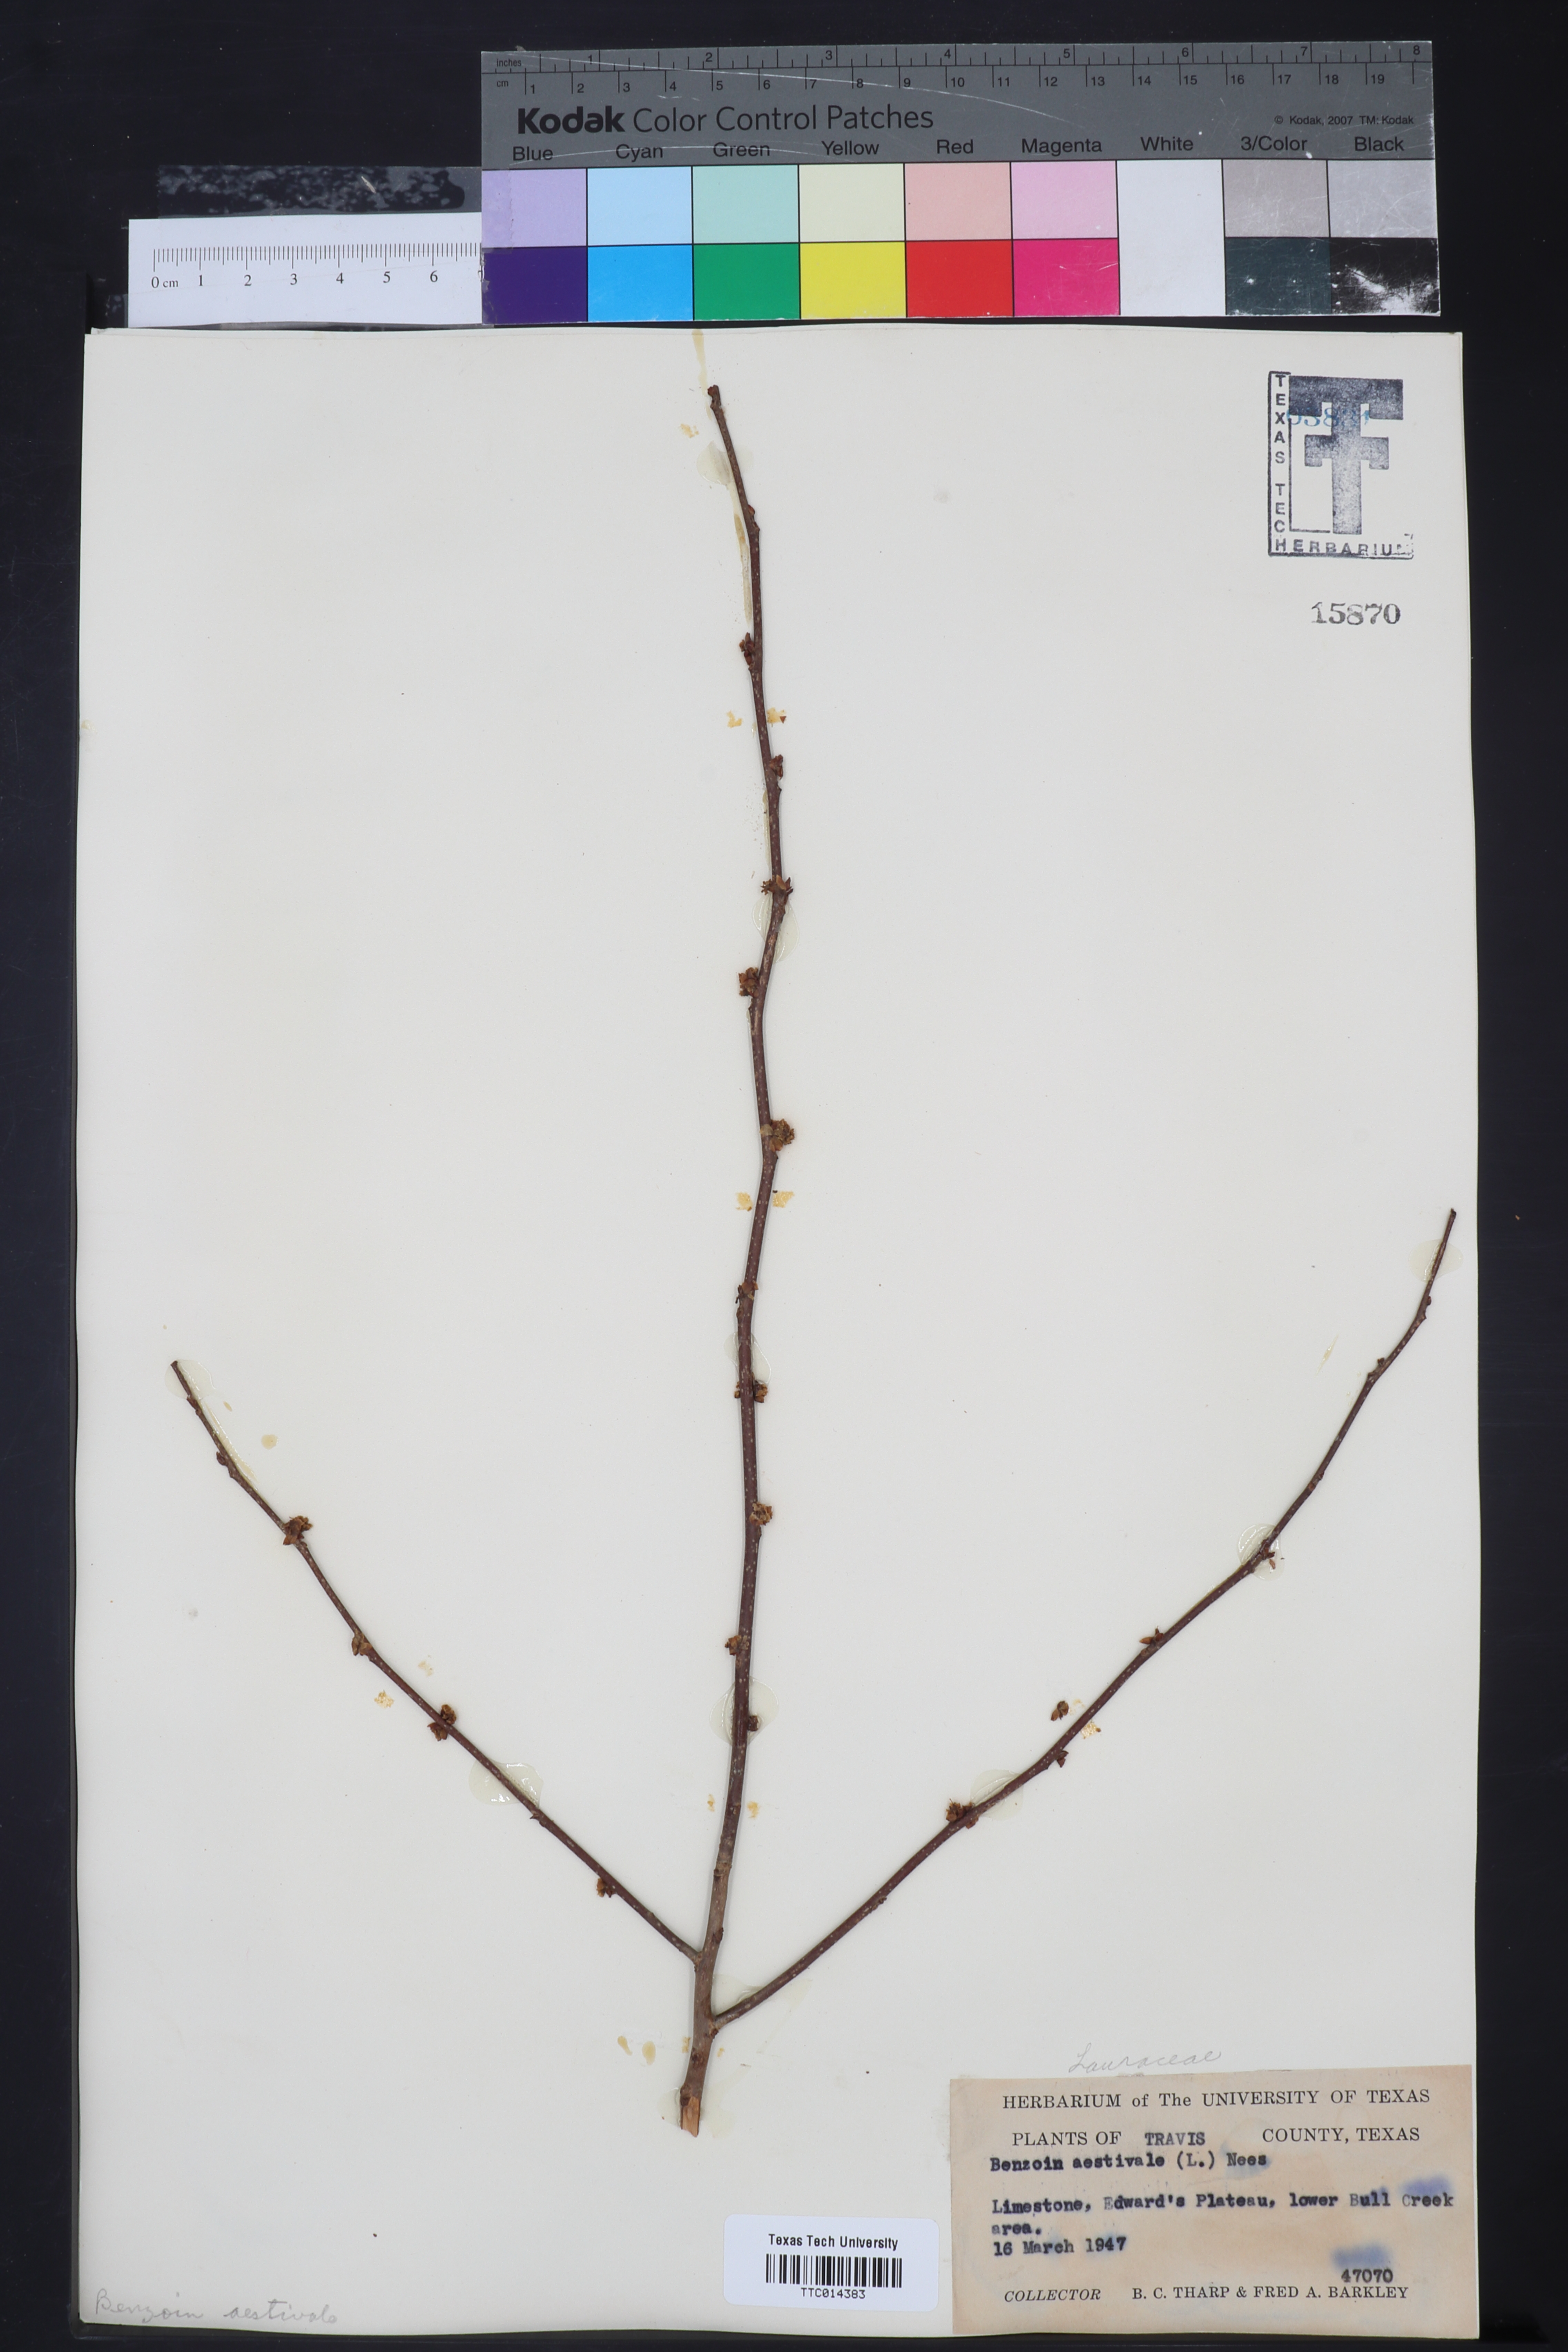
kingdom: Plantae
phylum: Tracheophyta
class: Magnoliopsida
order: Laurales
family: Lauraceae
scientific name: Lauraceae
